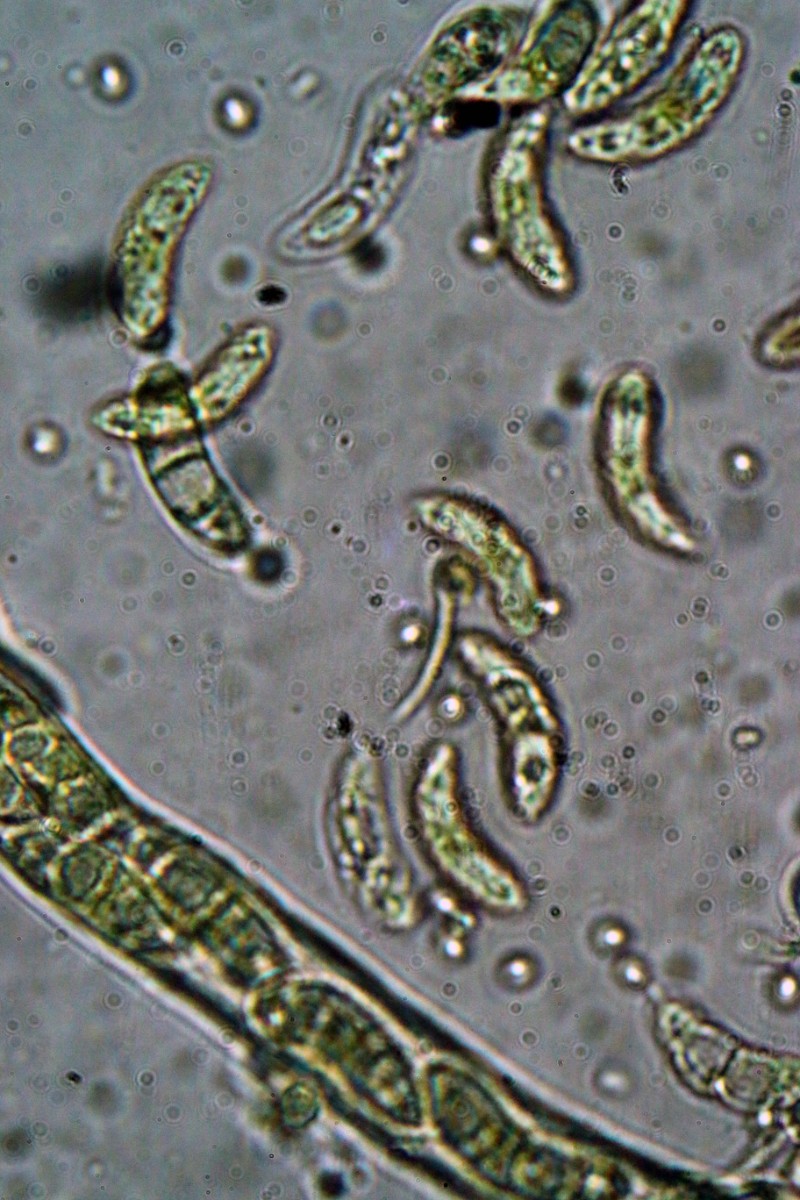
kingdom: Fungi
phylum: Ascomycota
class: Leotiomycetes
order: Helotiales
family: Rutstroemiaceae
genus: Lanzia
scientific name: Lanzia echinophila
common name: kastanie-brunskive
